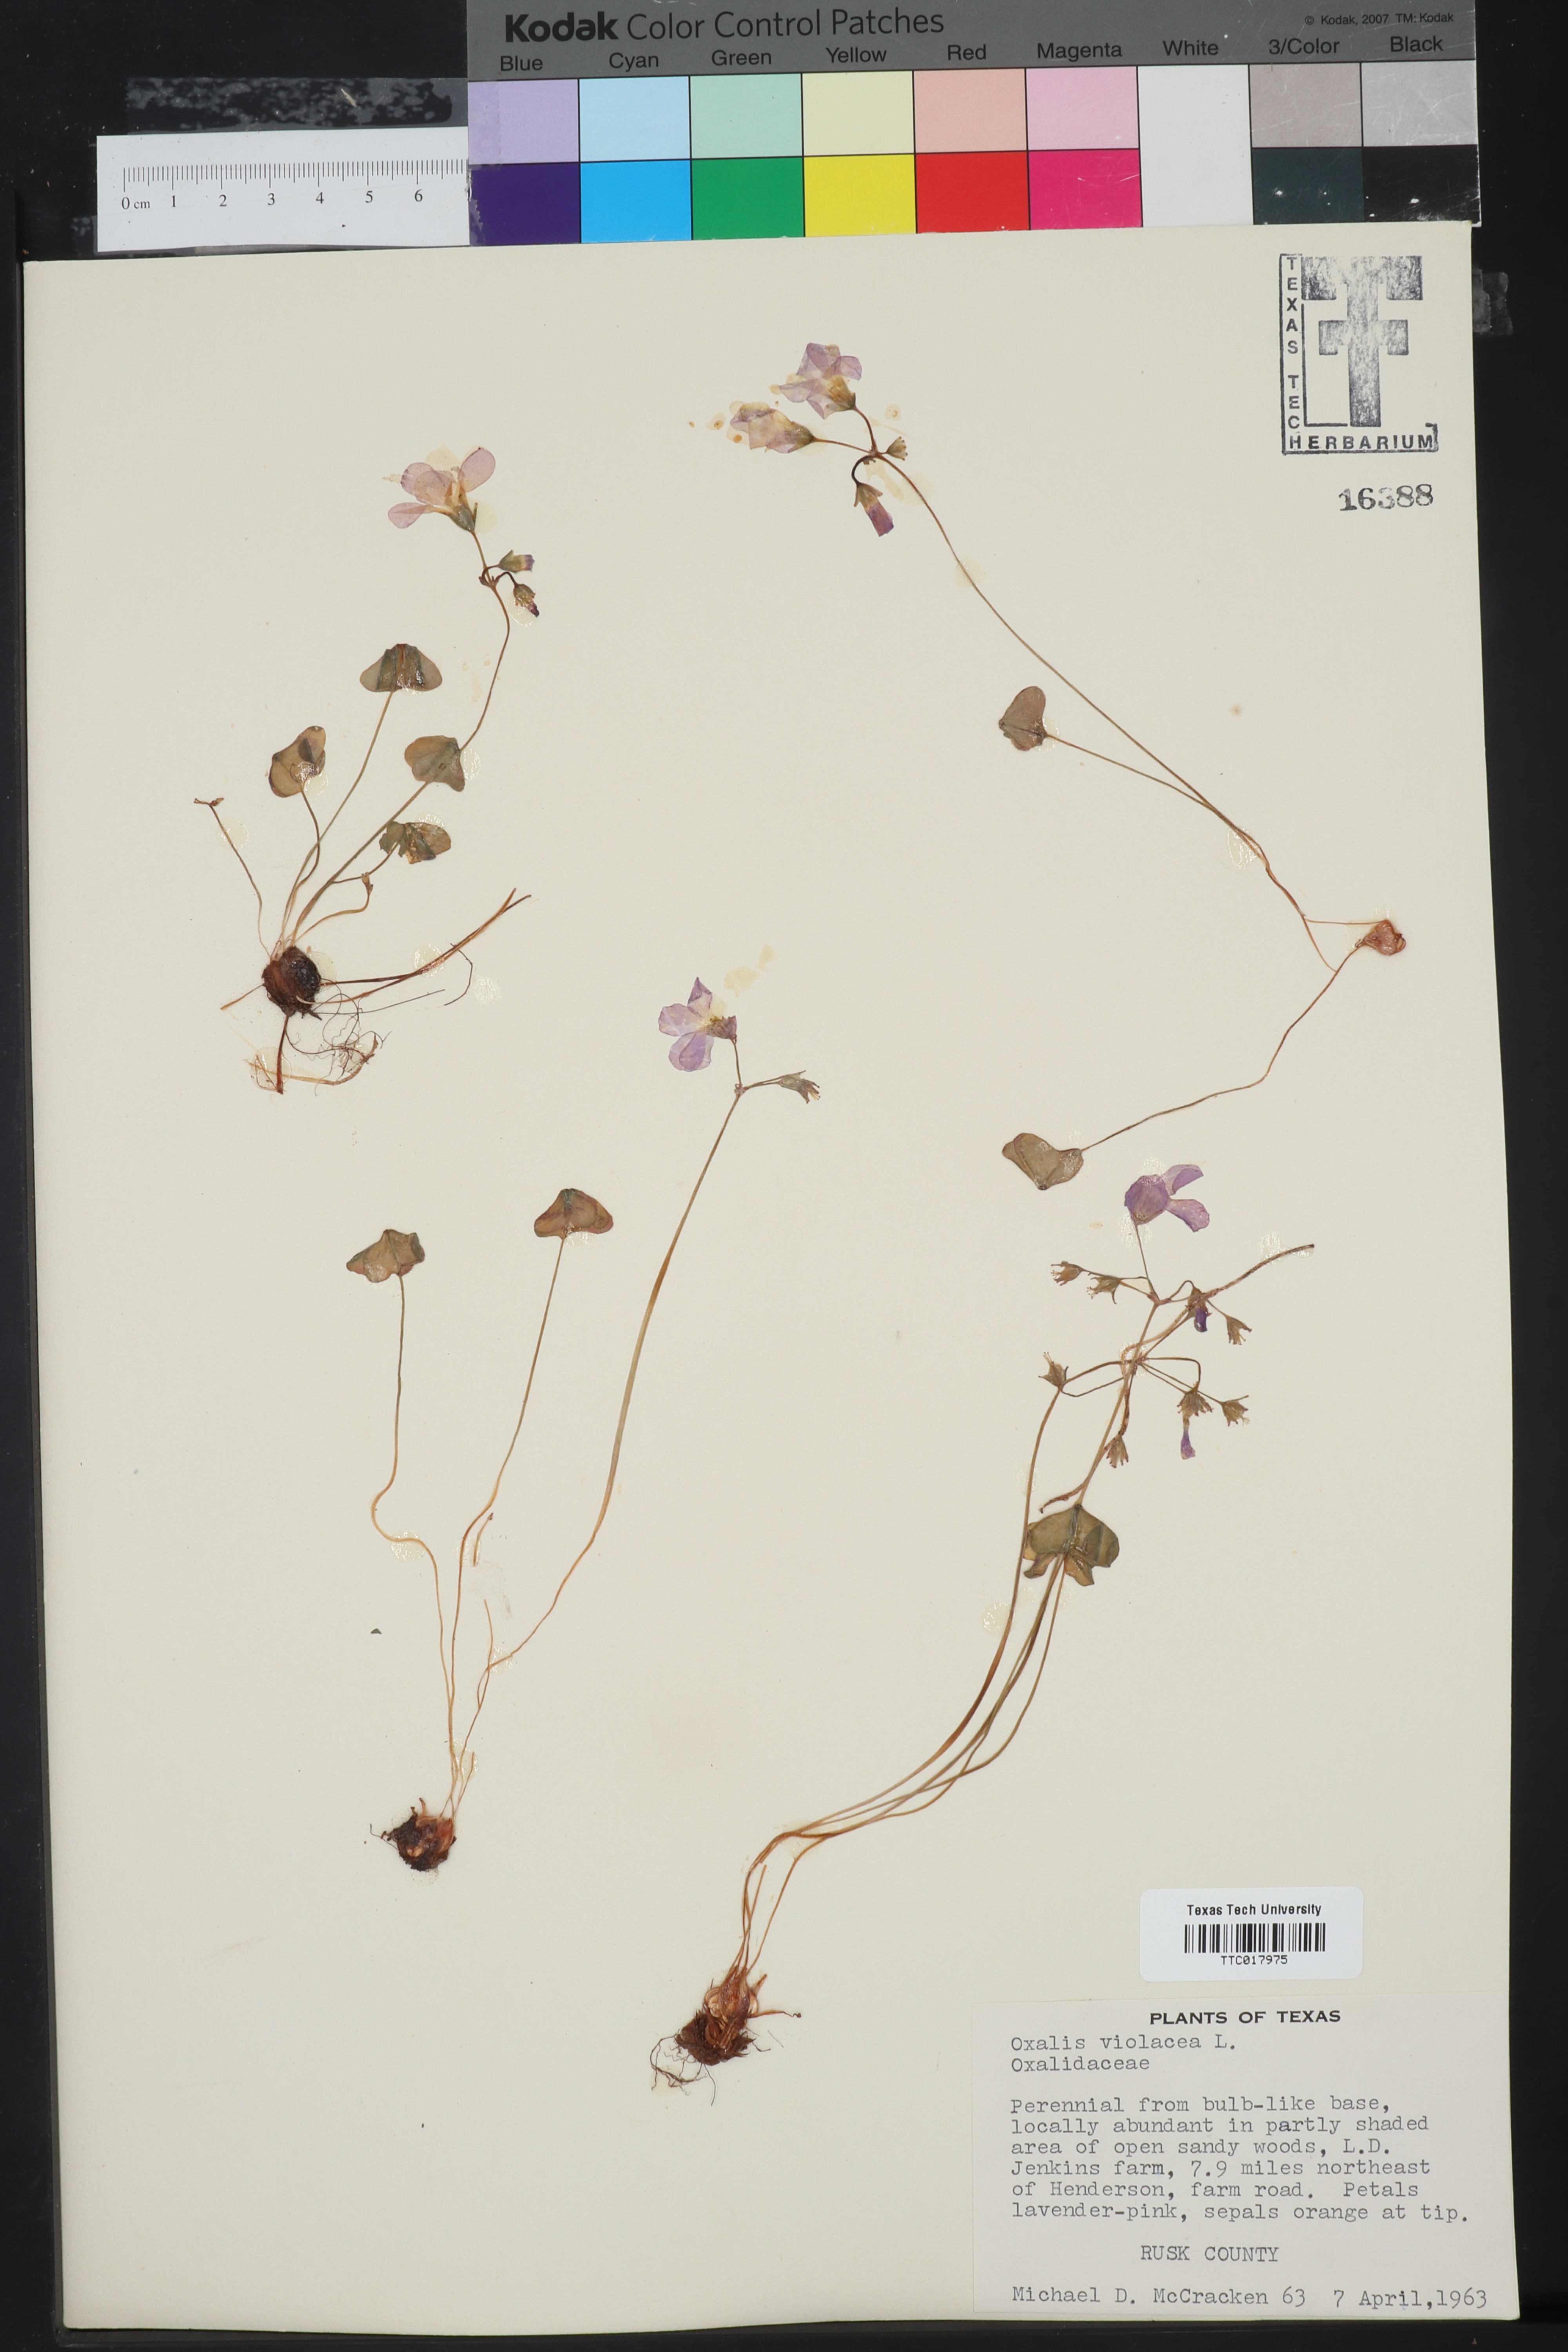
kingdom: Plantae
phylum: Tracheophyta
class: Magnoliopsida
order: Oxalidales
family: Oxalidaceae
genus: Oxalis
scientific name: Oxalis violacea
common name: Violet wood-sorrel
